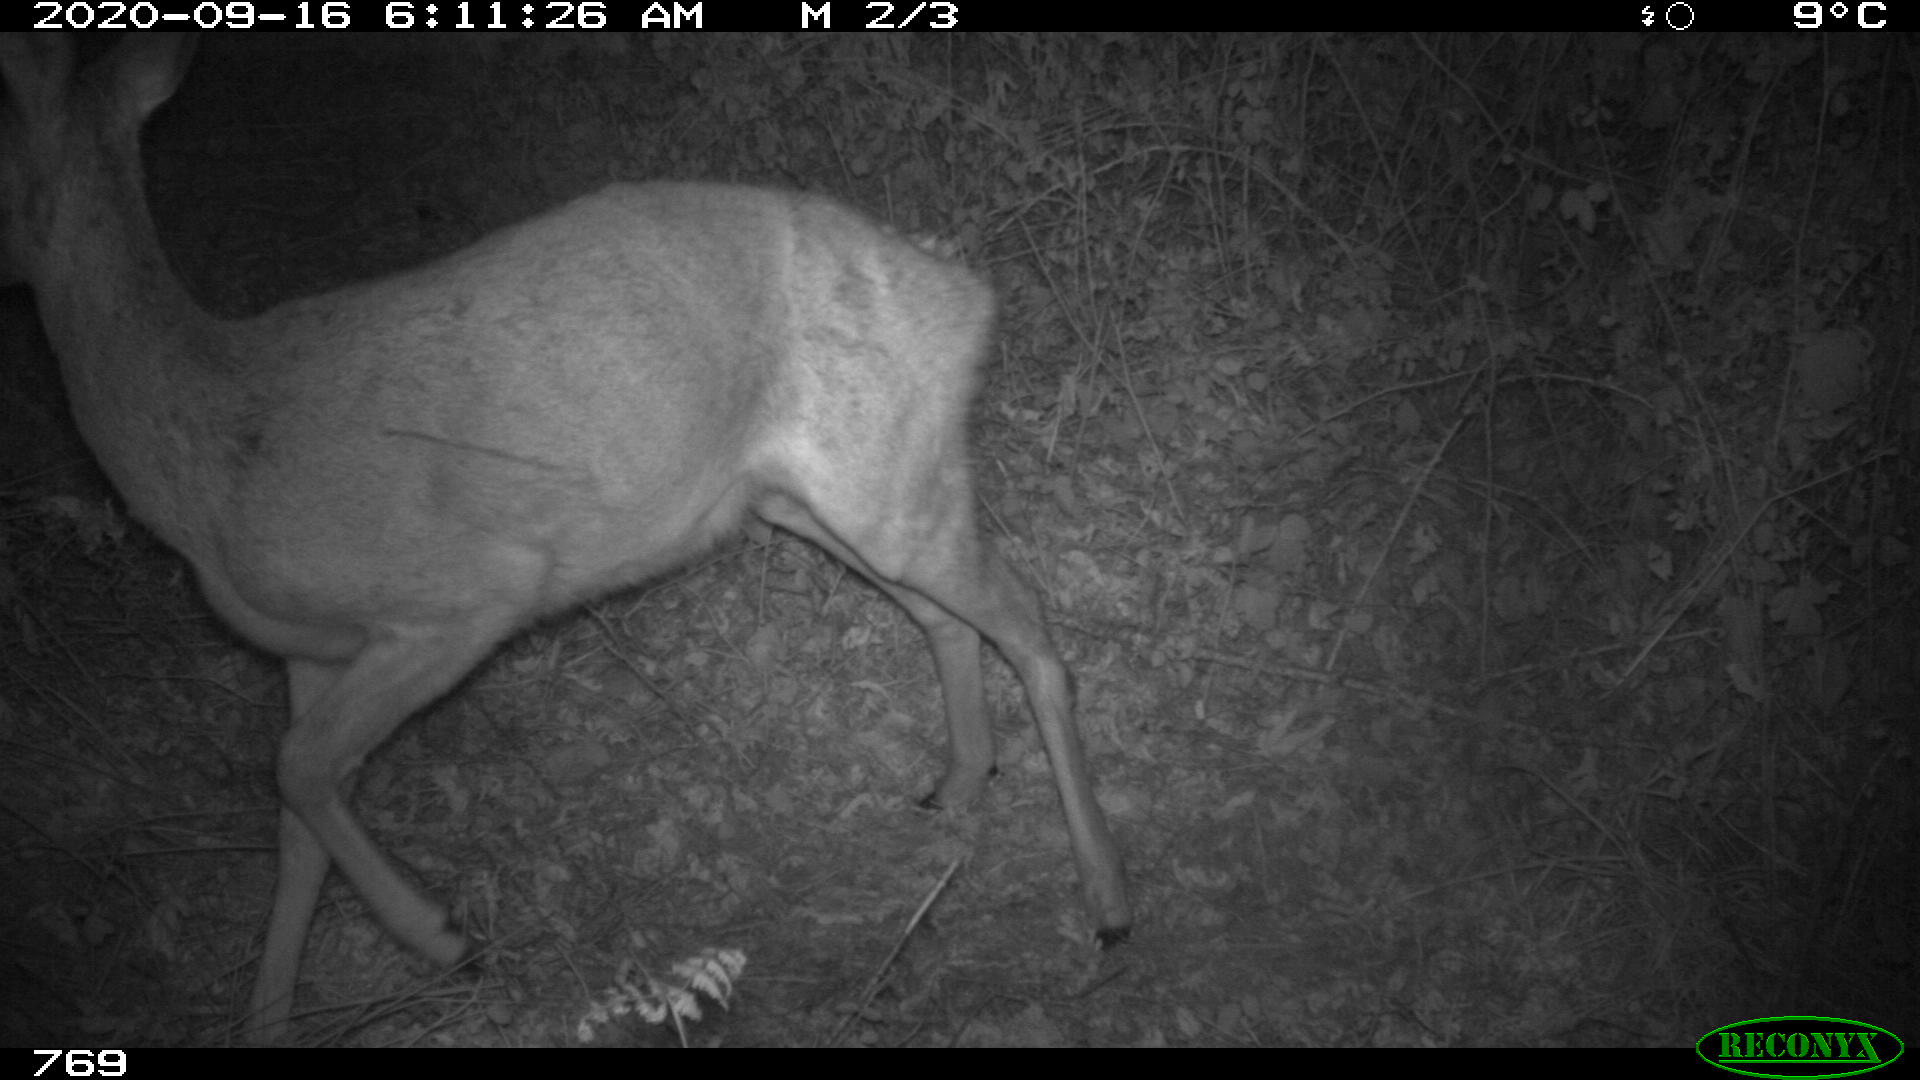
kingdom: Animalia
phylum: Chordata
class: Mammalia
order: Artiodactyla
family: Cervidae
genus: Capreolus
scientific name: Capreolus capreolus
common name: Western roe deer
